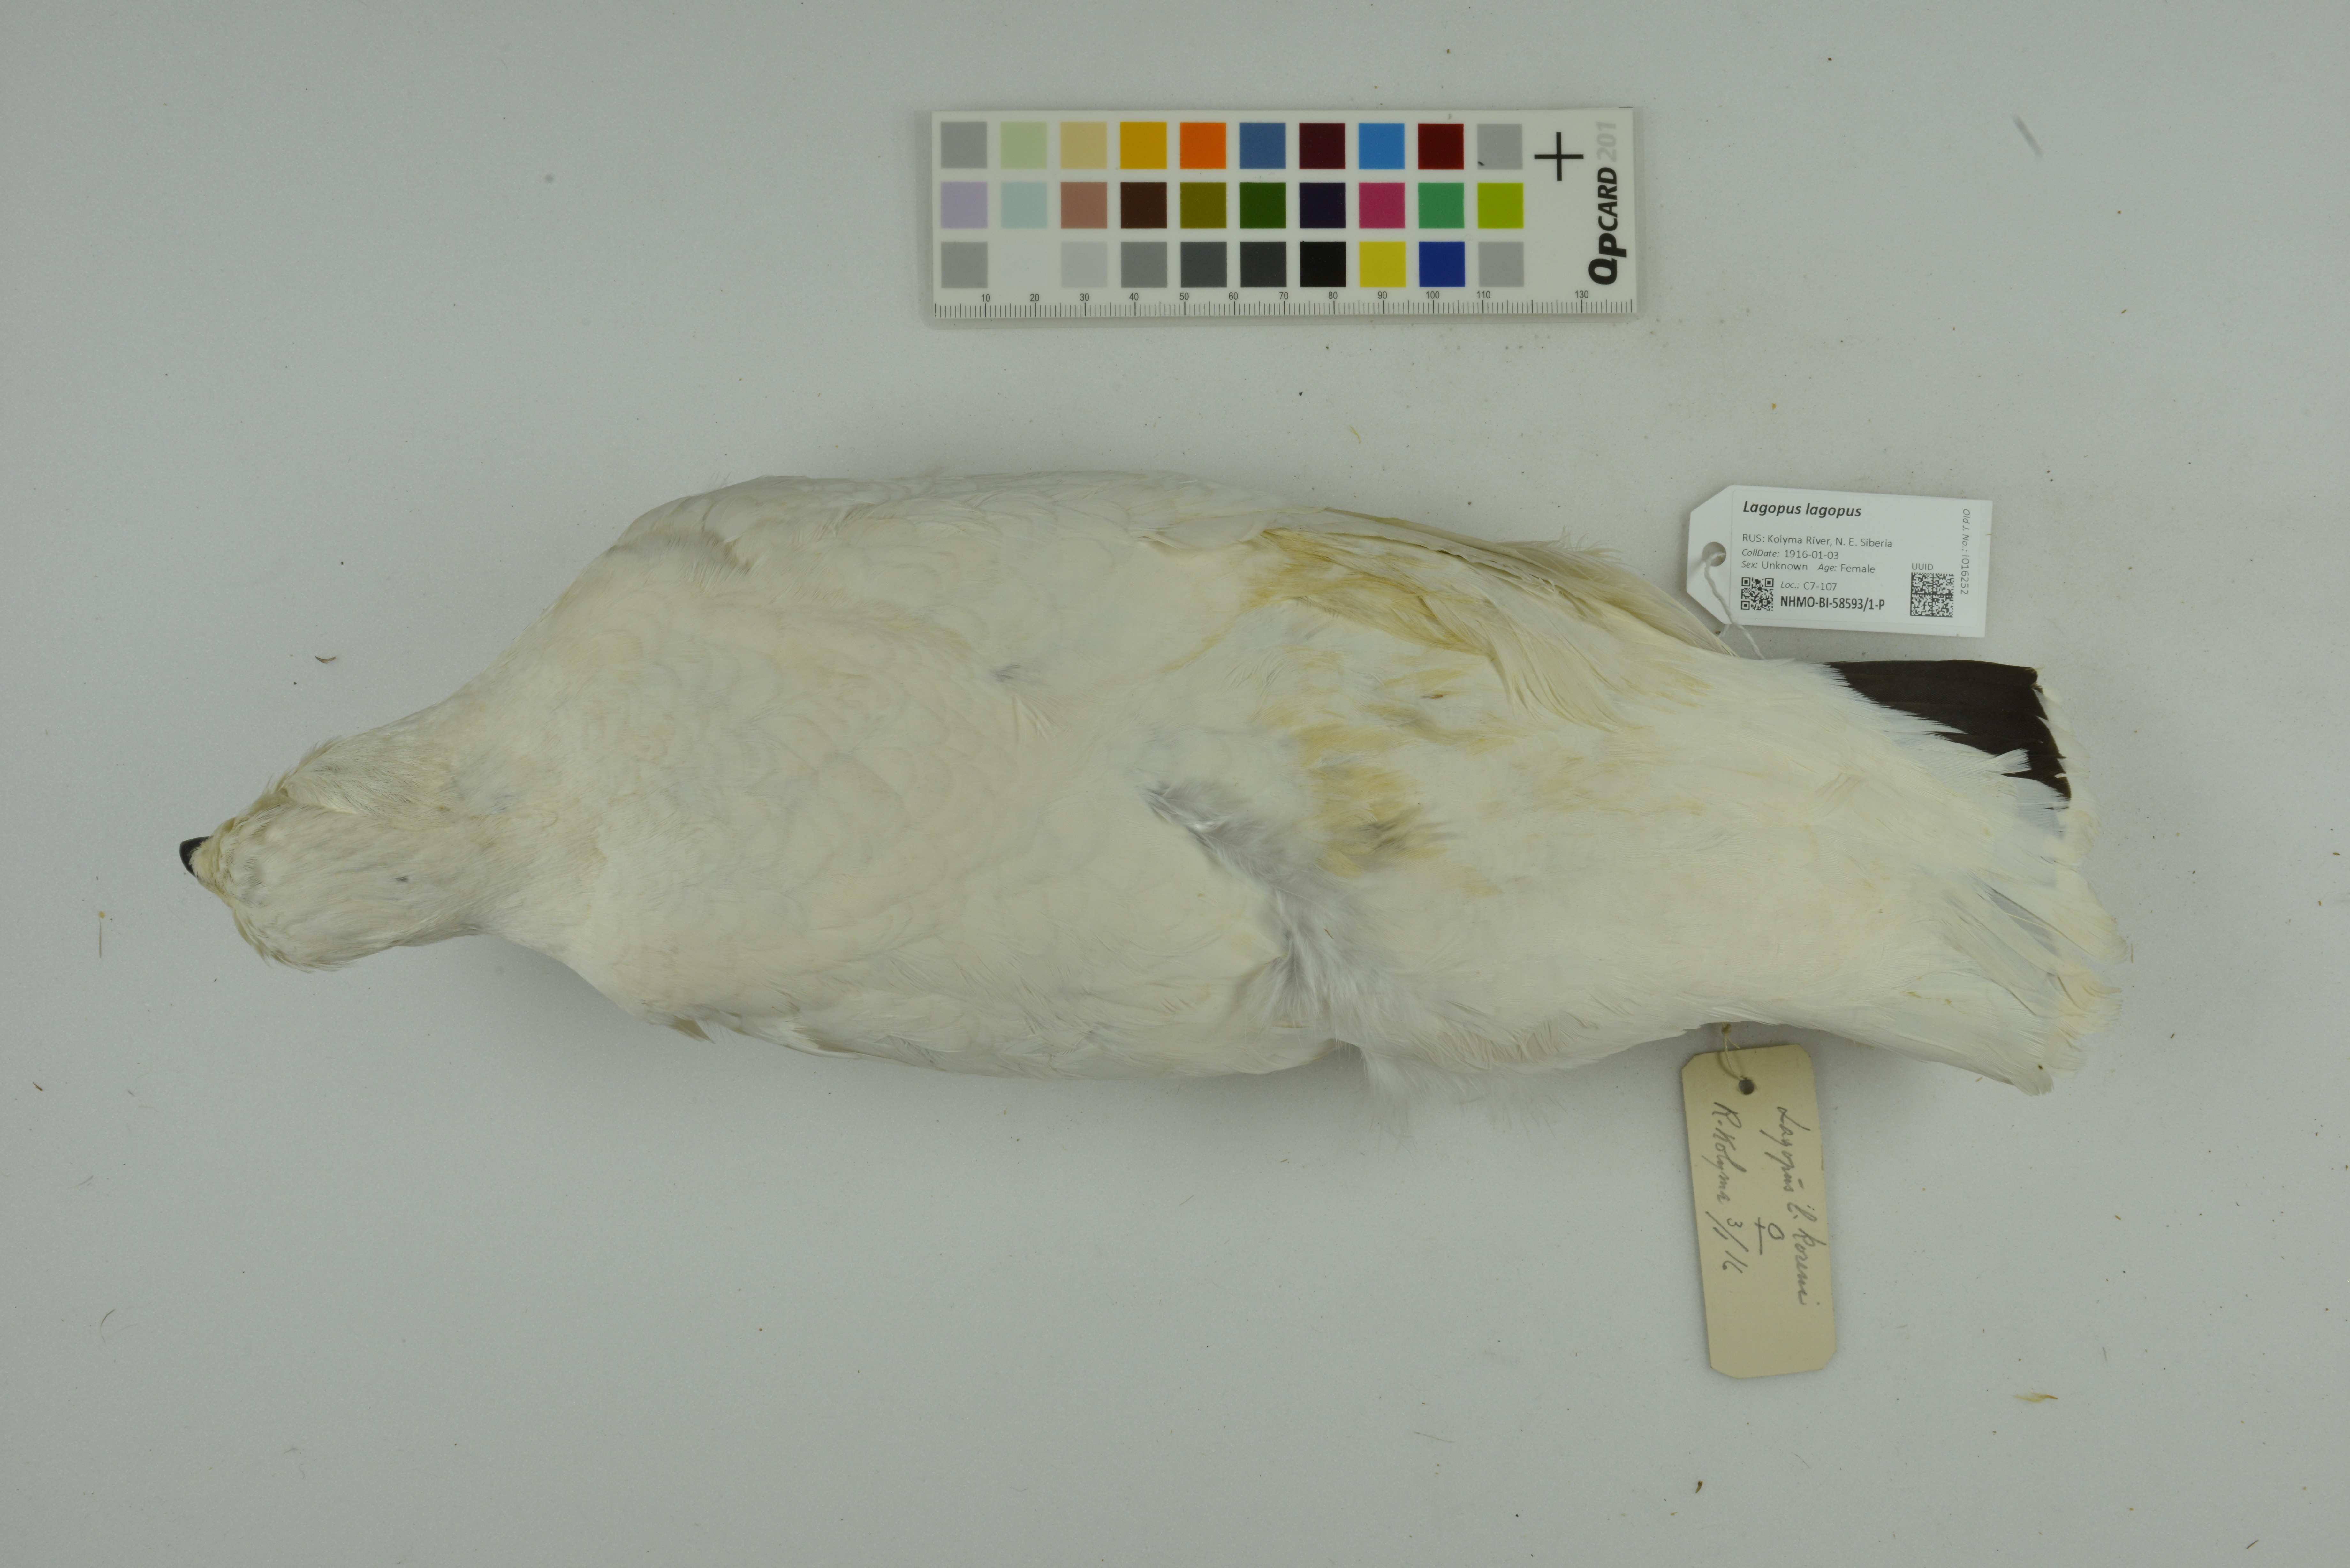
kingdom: Animalia
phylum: Chordata
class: Aves
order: Galliformes
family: Phasianidae
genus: Lagopus
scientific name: Lagopus lagopus
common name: Willow ptarmigan
